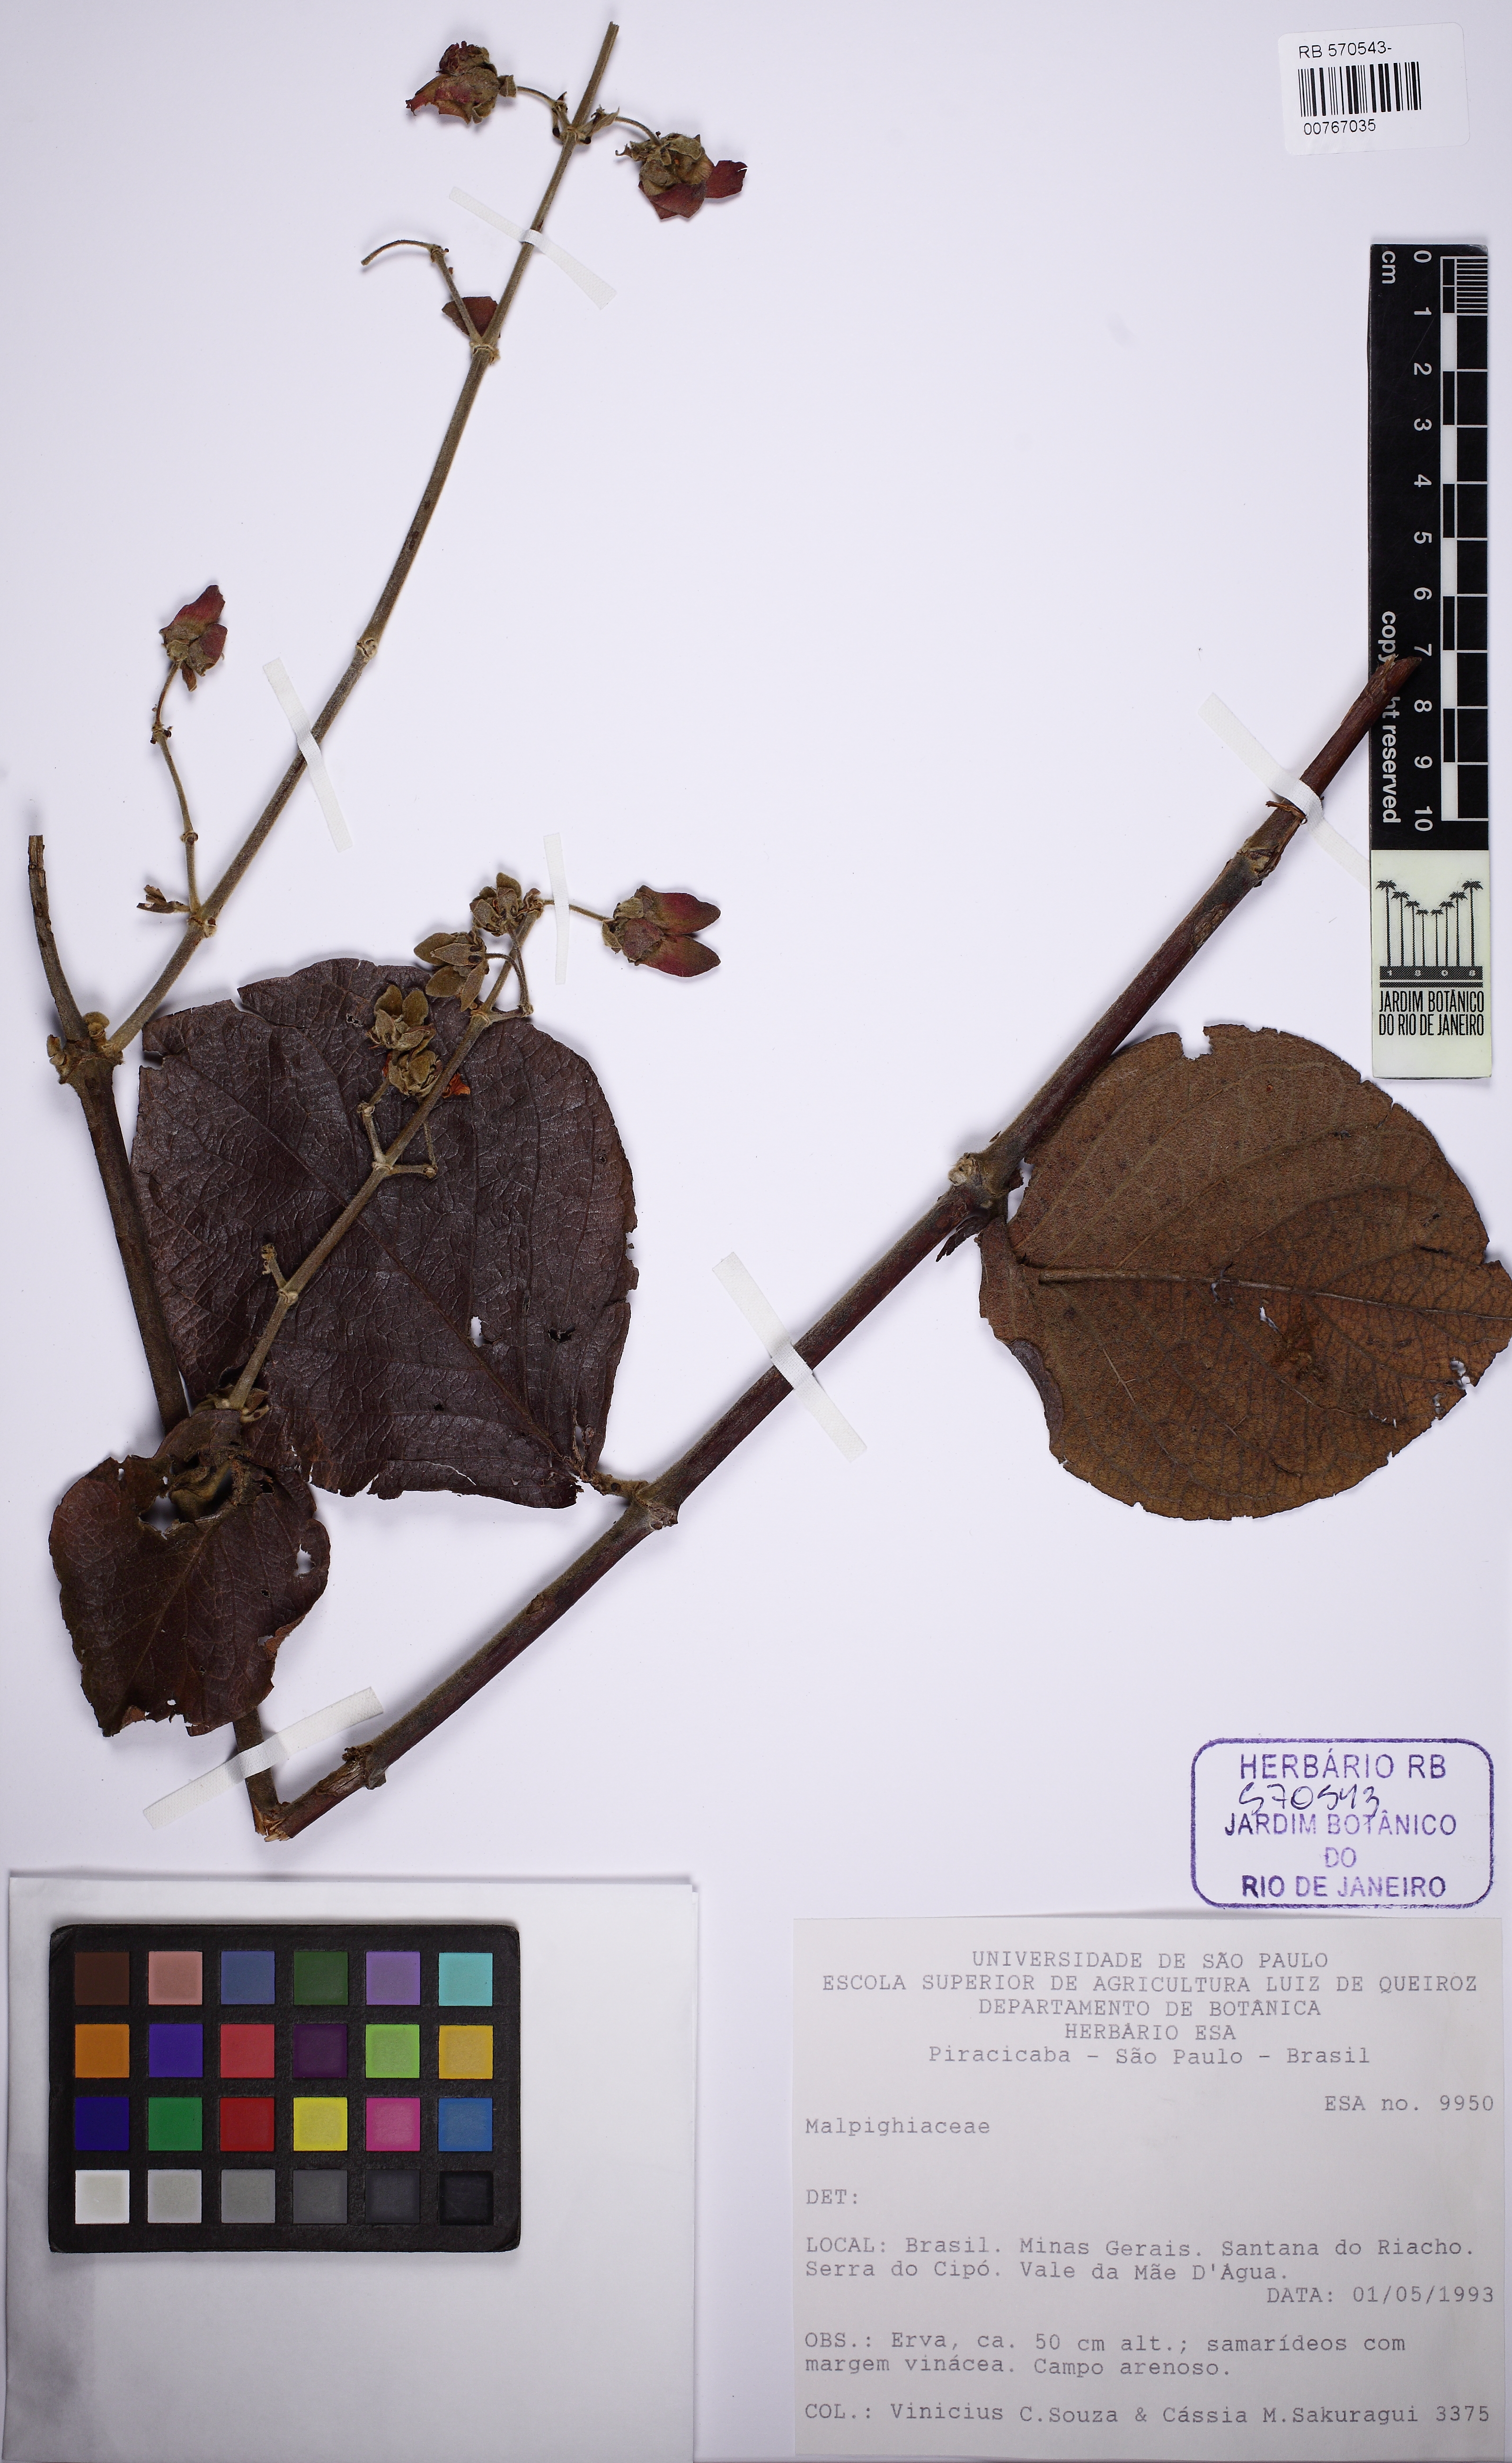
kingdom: Plantae
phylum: Tracheophyta
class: Magnoliopsida
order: Malpighiales
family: Malpighiaceae
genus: Peixotoa
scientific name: Peixotoa
